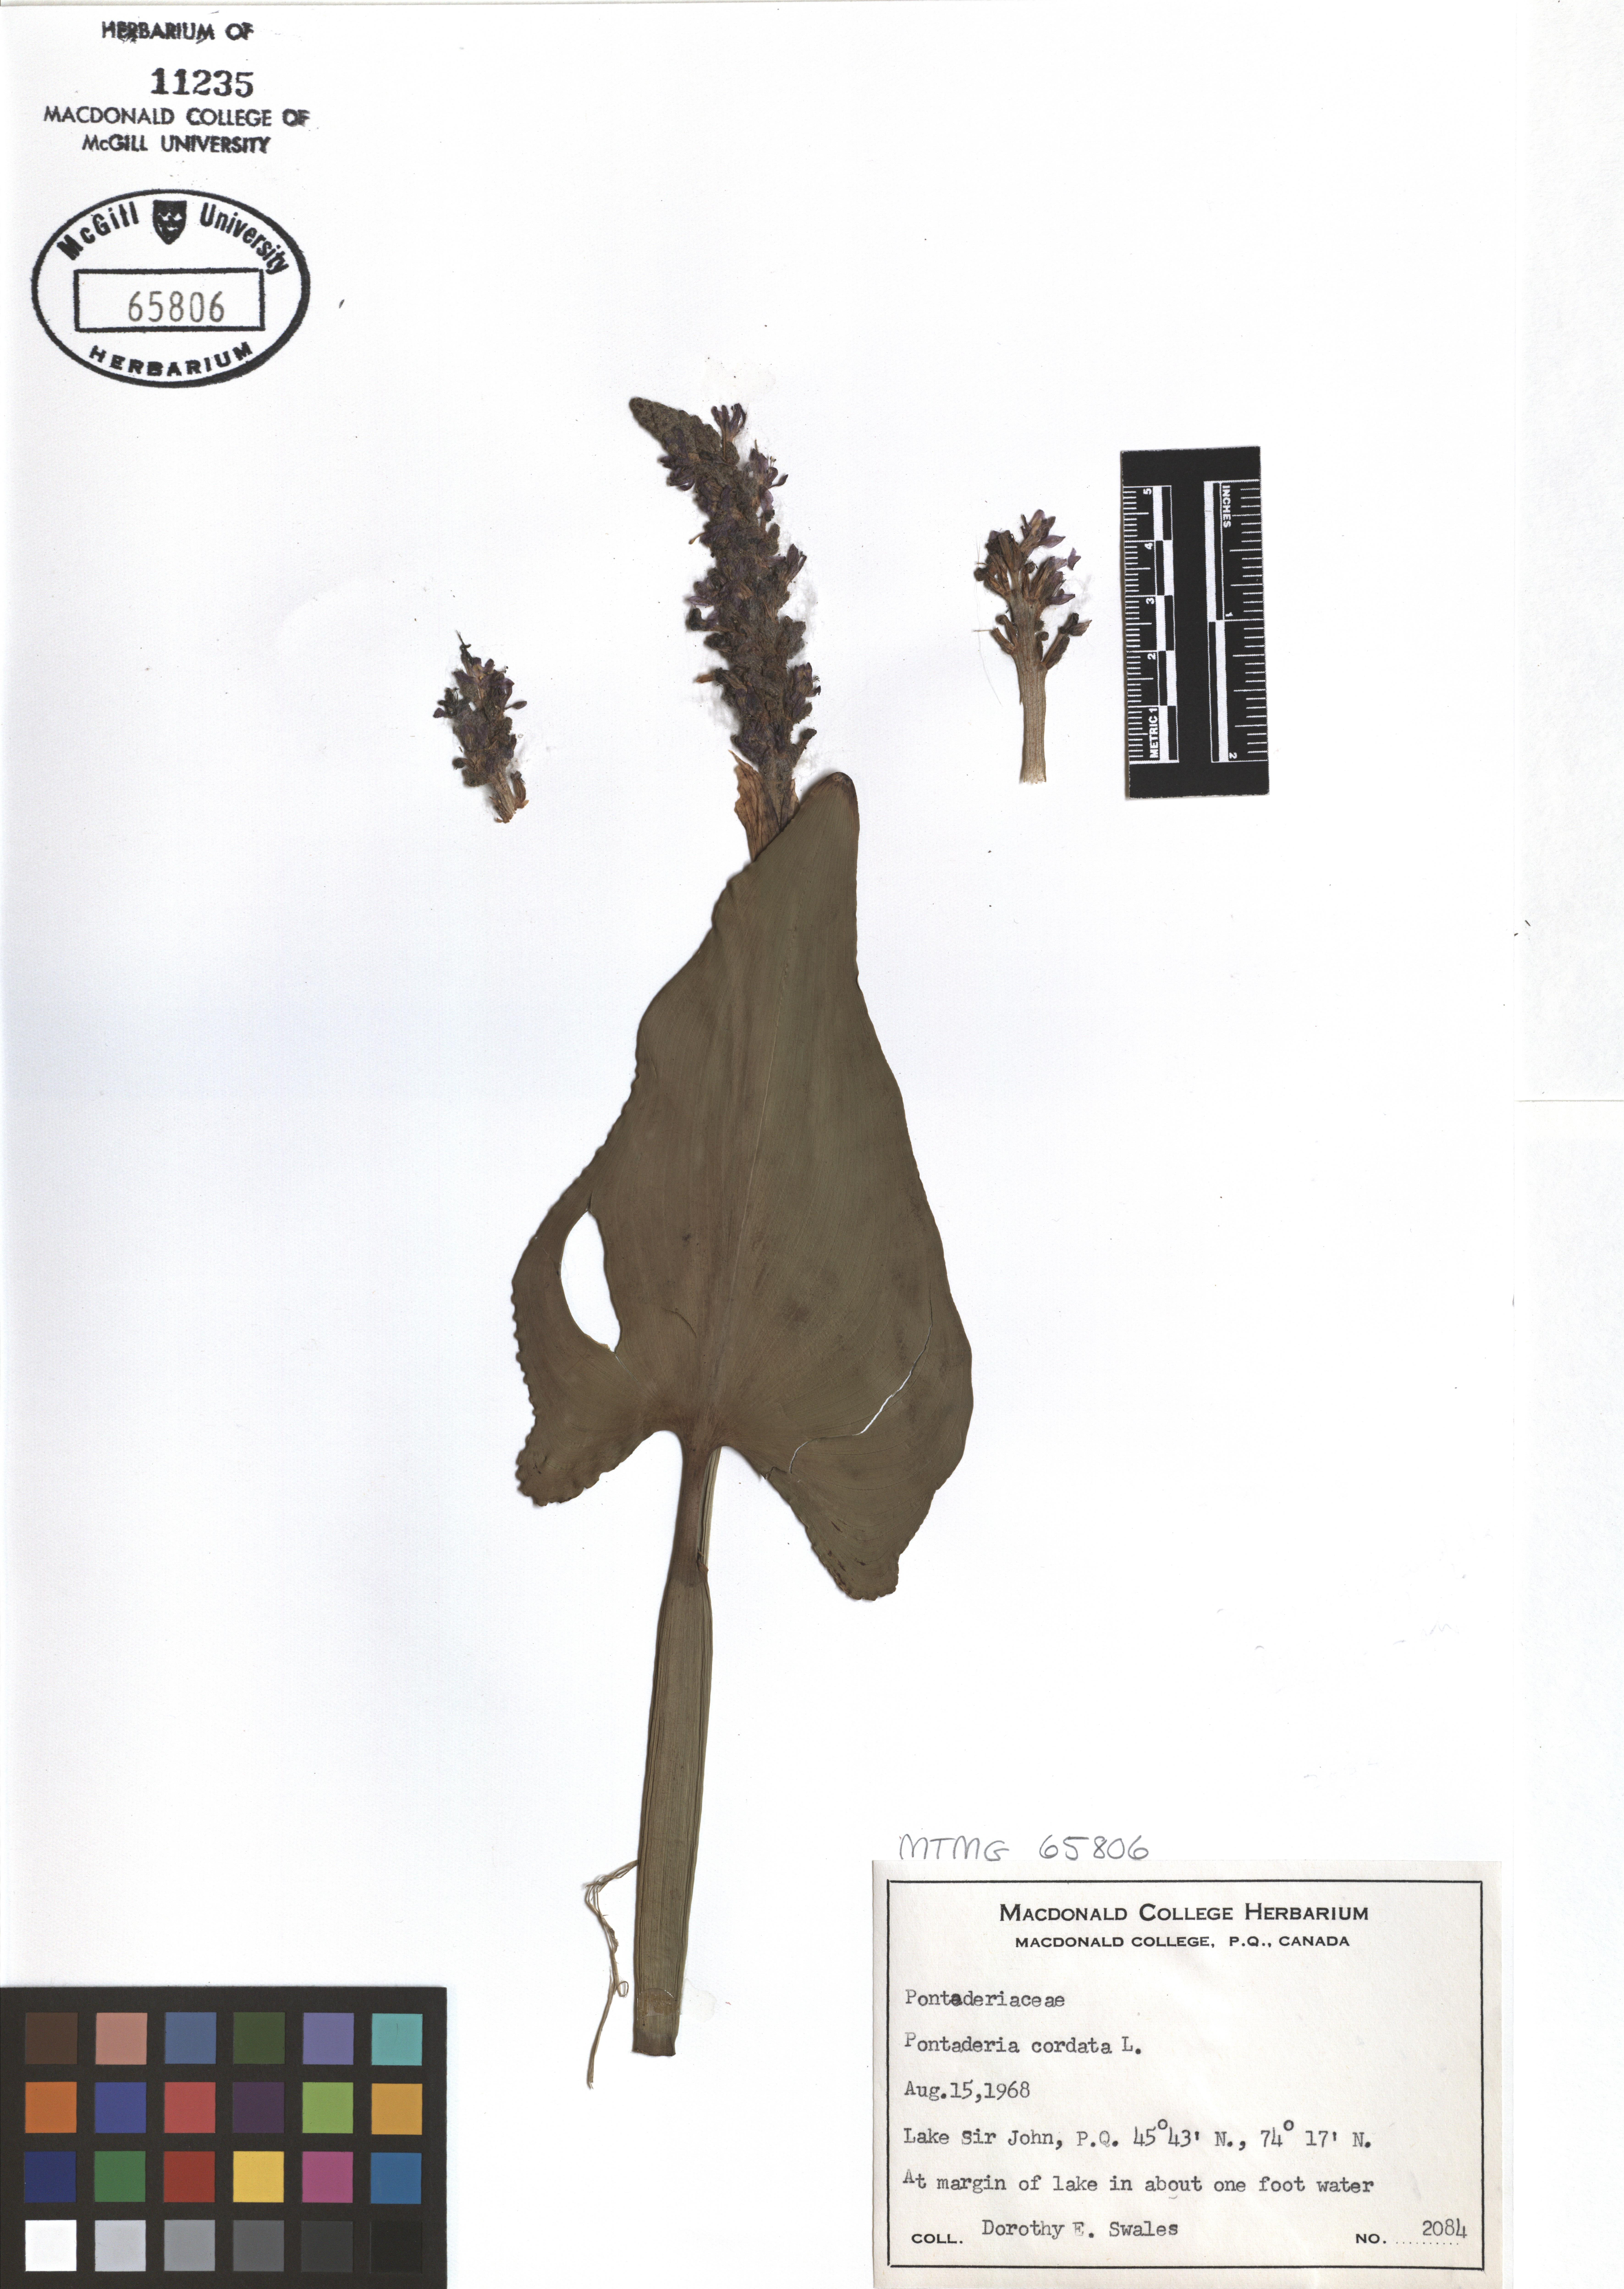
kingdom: Plantae
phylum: Tracheophyta
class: Liliopsida
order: Commelinales
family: Pontederiaceae
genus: Pontederia
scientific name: Pontederia cordata
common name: Pickerelweed
